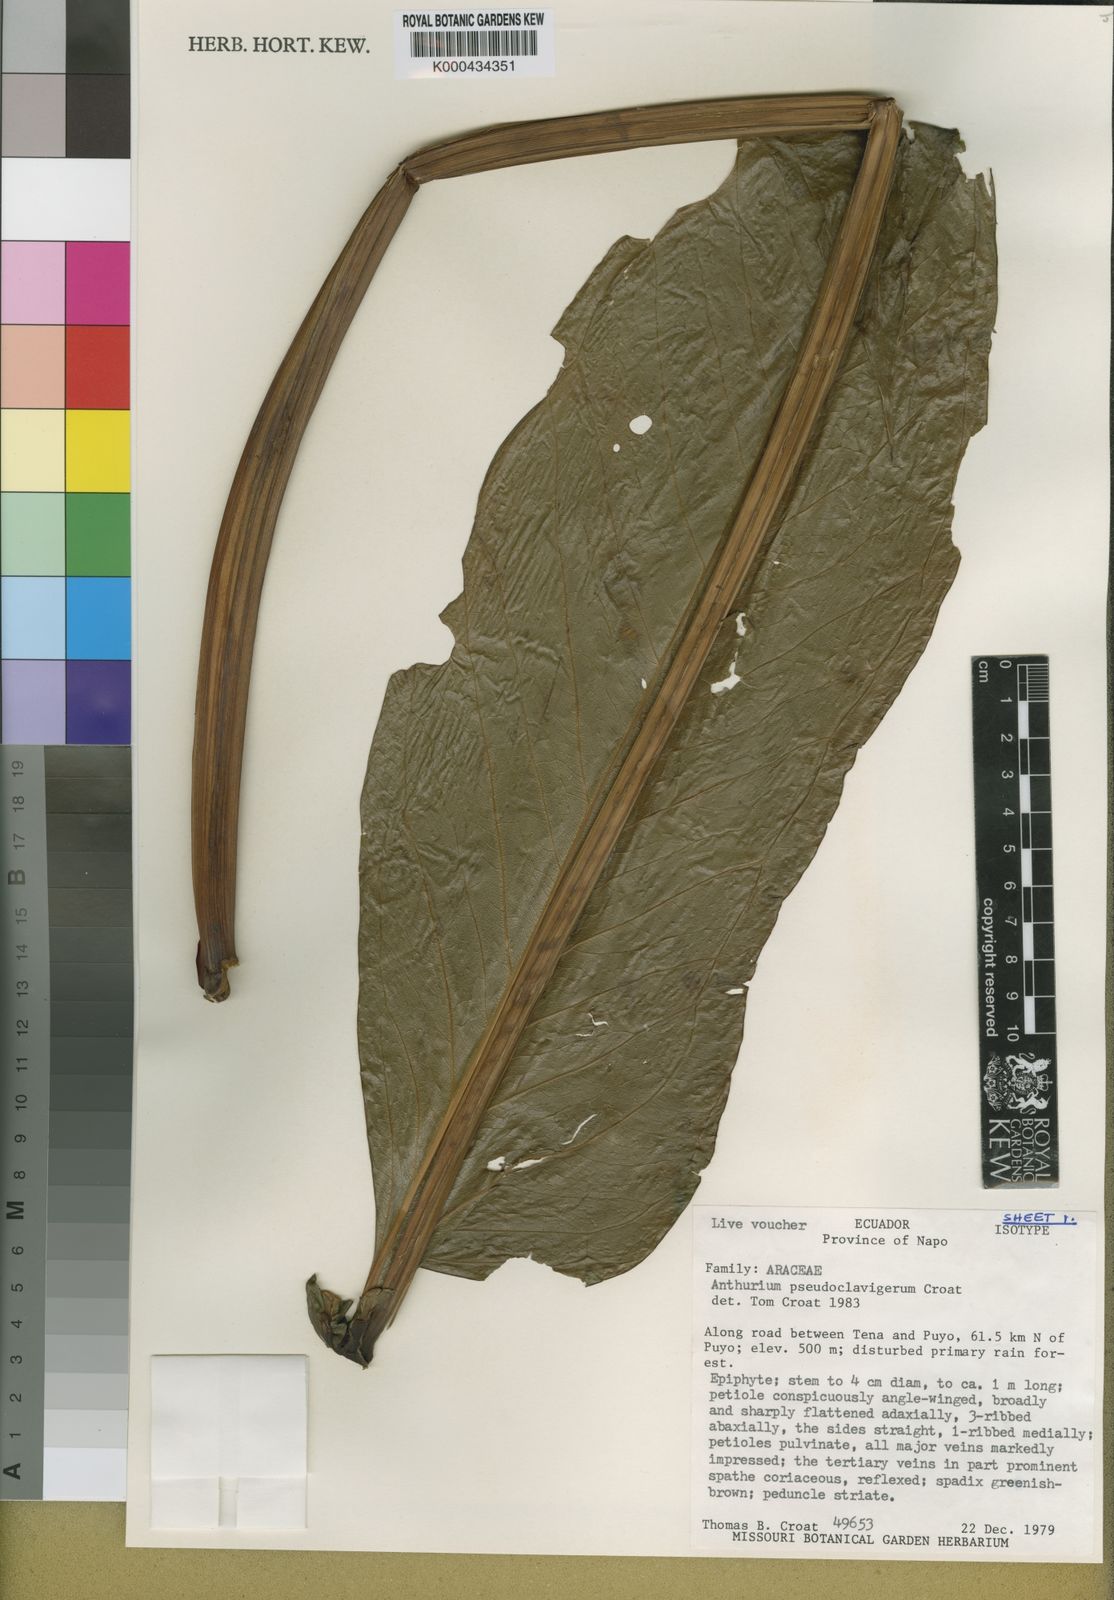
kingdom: Plantae
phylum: Tracheophyta
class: Liliopsida
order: Alismatales
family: Araceae
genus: Anthurium
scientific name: Anthurium
